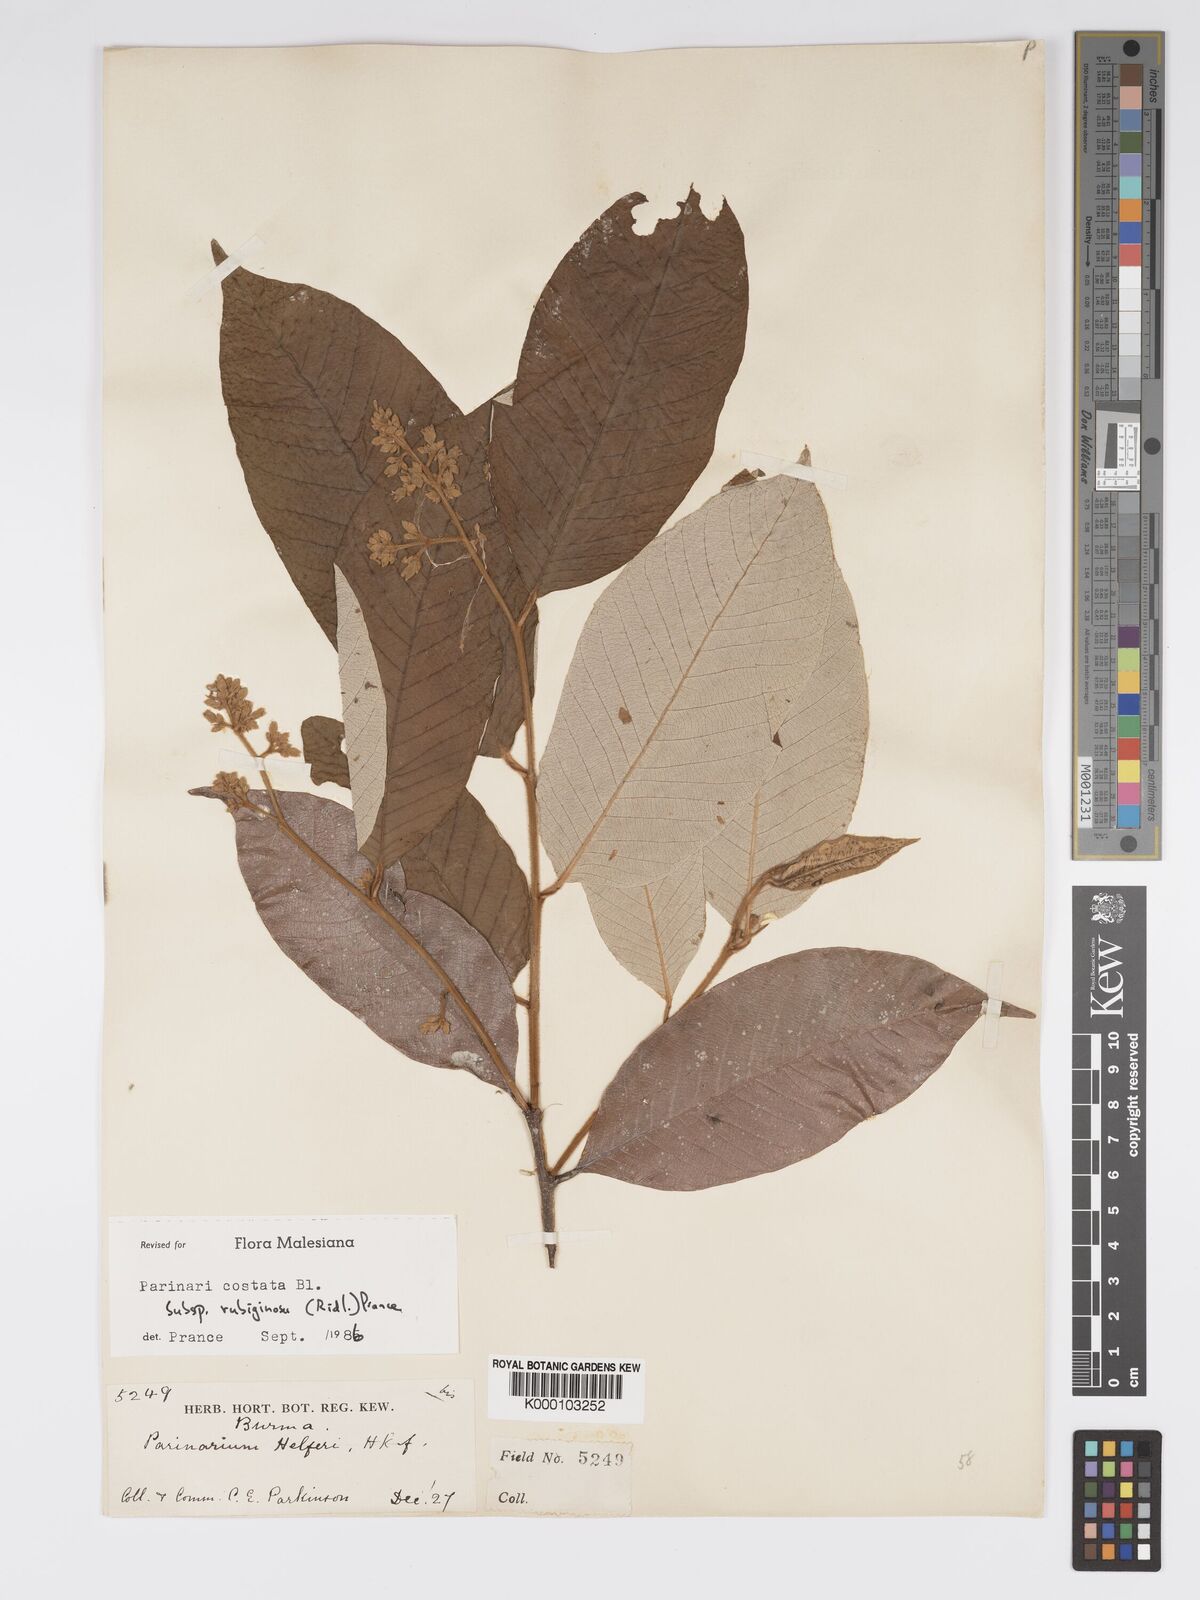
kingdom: Plantae
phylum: Tracheophyta
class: Magnoliopsida
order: Malpighiales
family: Chrysobalanaceae
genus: Parinari
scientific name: Parinari costata
